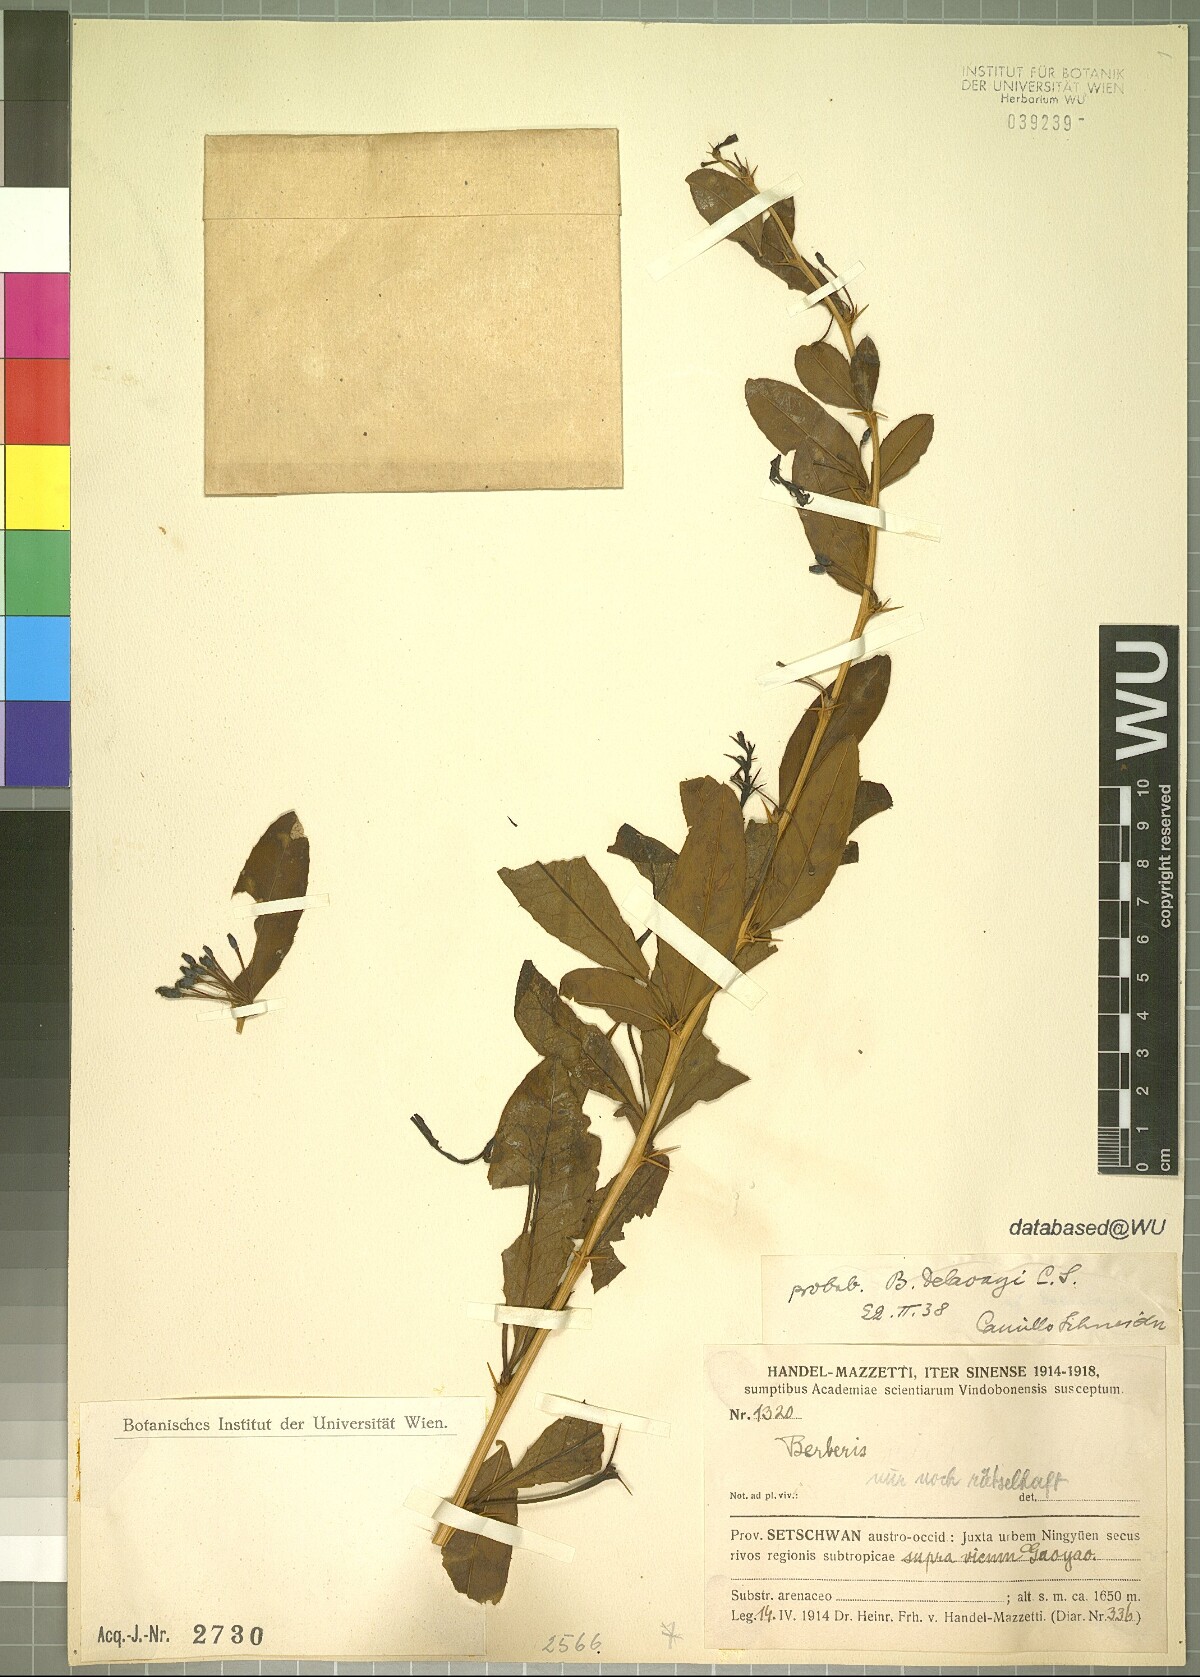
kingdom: Plantae
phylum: Tracheophyta
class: Magnoliopsida
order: Ranunculales
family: Berberidaceae
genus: Berberis
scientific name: Berberis delavayi
